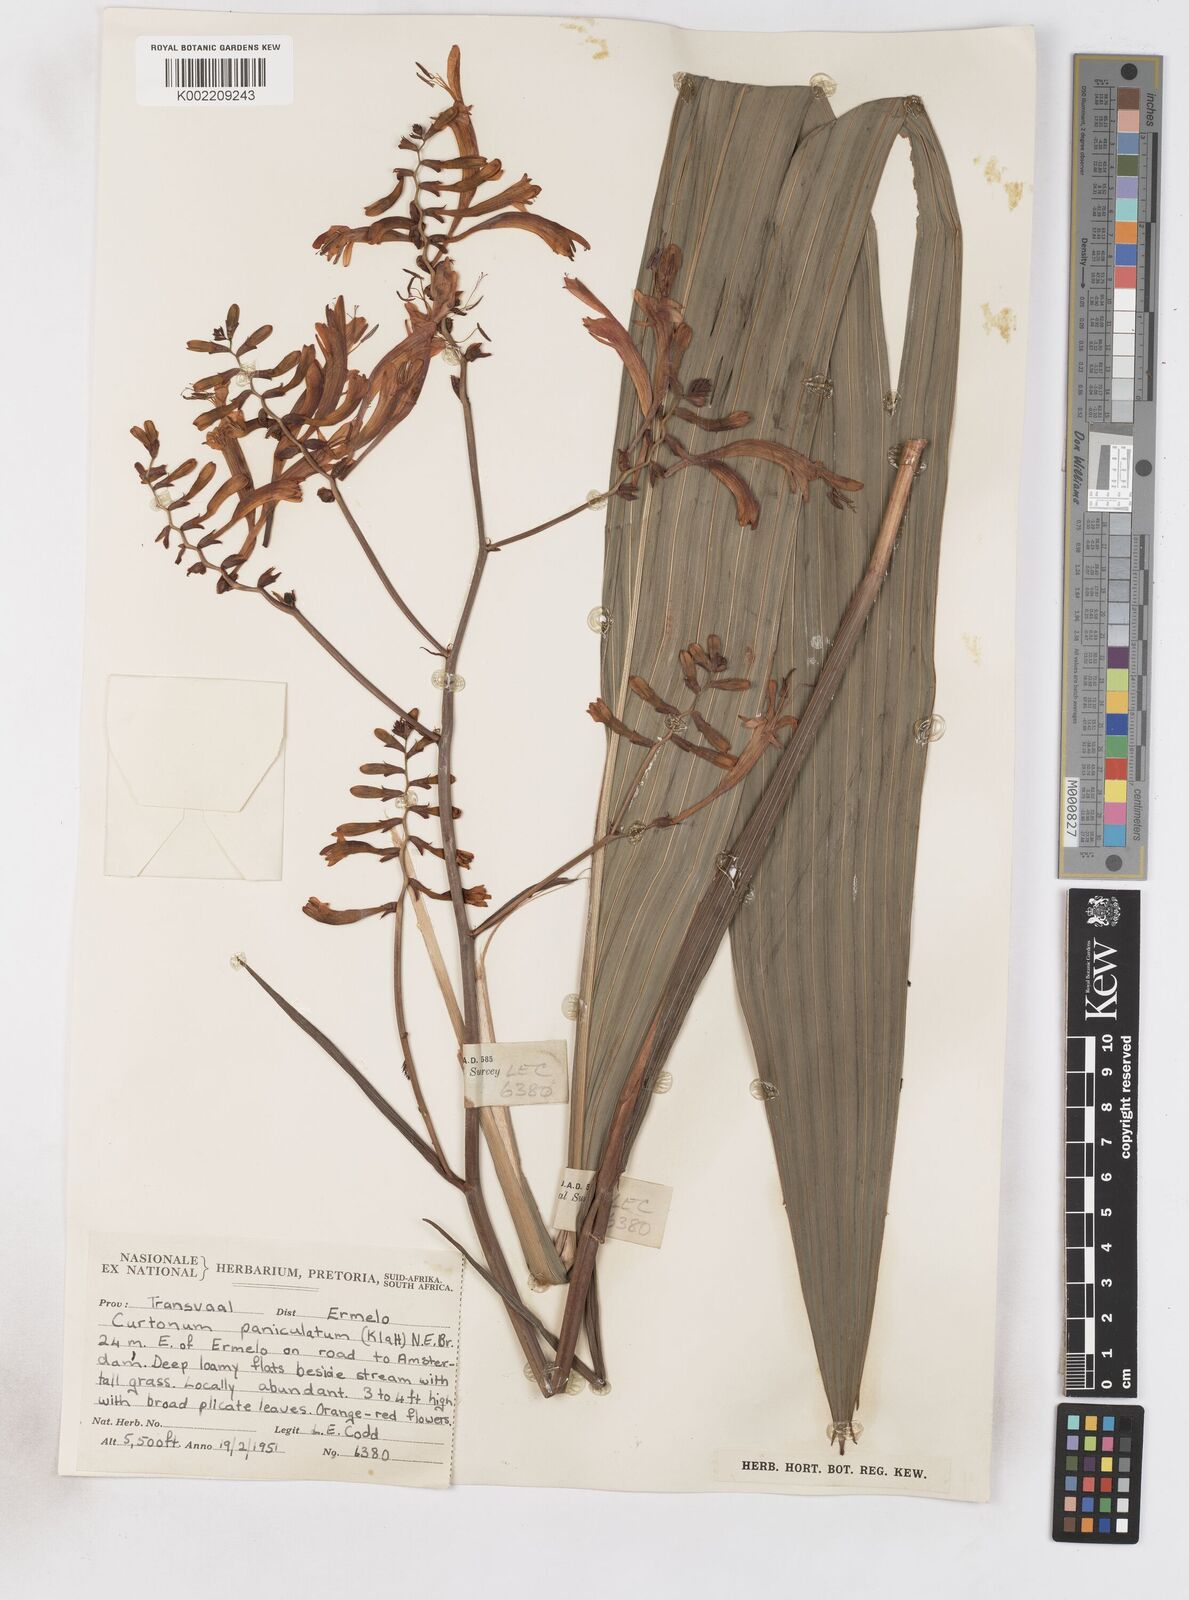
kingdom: Plantae
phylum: Tracheophyta
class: Liliopsida
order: Asparagales
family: Iridaceae
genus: Crocosmia
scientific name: Crocosmia paniculata
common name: Aunt eliza
